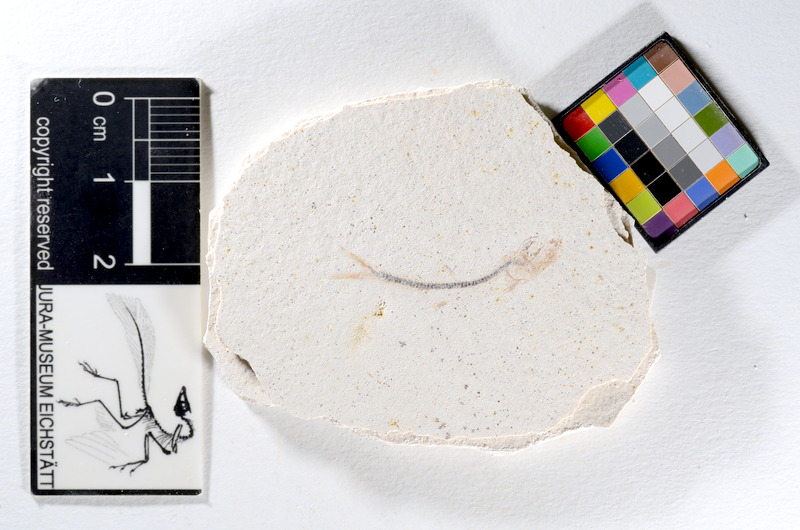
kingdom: Animalia
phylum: Chordata
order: Salmoniformes
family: Orthogonikleithridae
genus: Orthogonikleithrus
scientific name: Orthogonikleithrus hoelli
